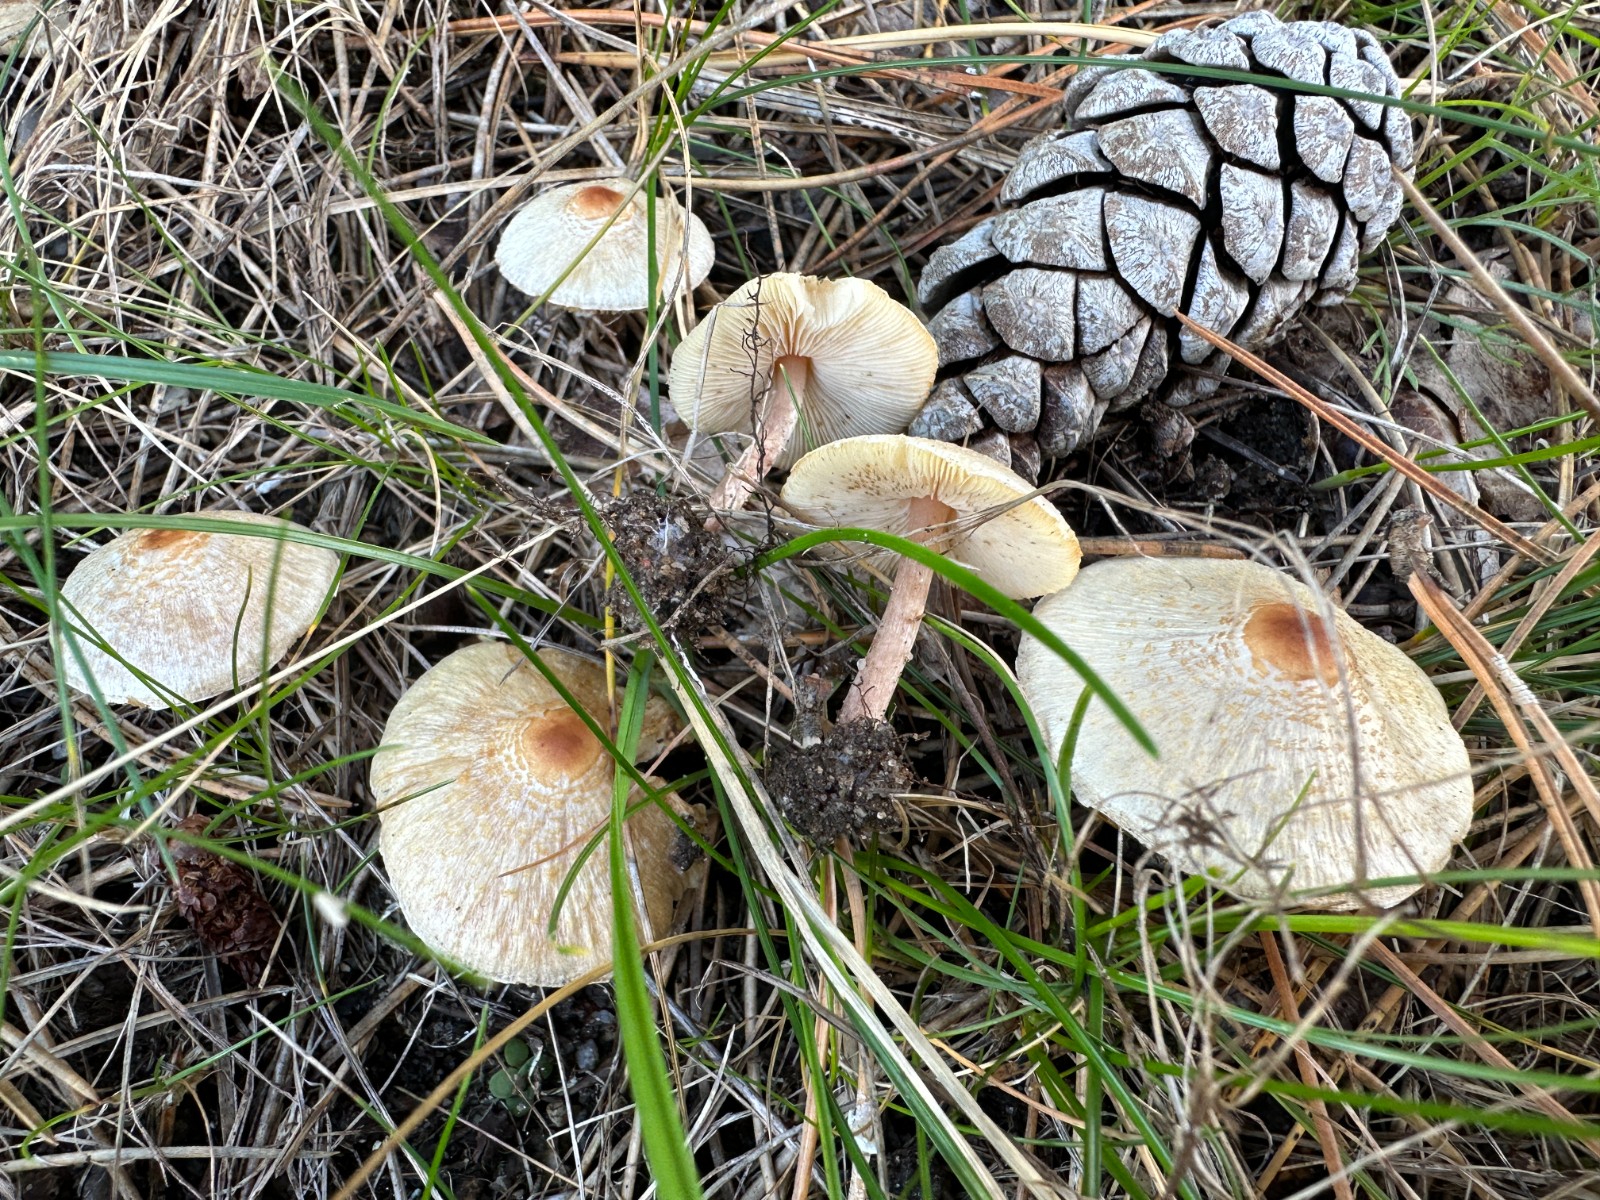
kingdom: Fungi
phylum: Basidiomycota
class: Agaricomycetes
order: Agaricales
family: Agaricaceae
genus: Lepiota
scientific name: Lepiota cristata
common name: stinkende parasolhat
